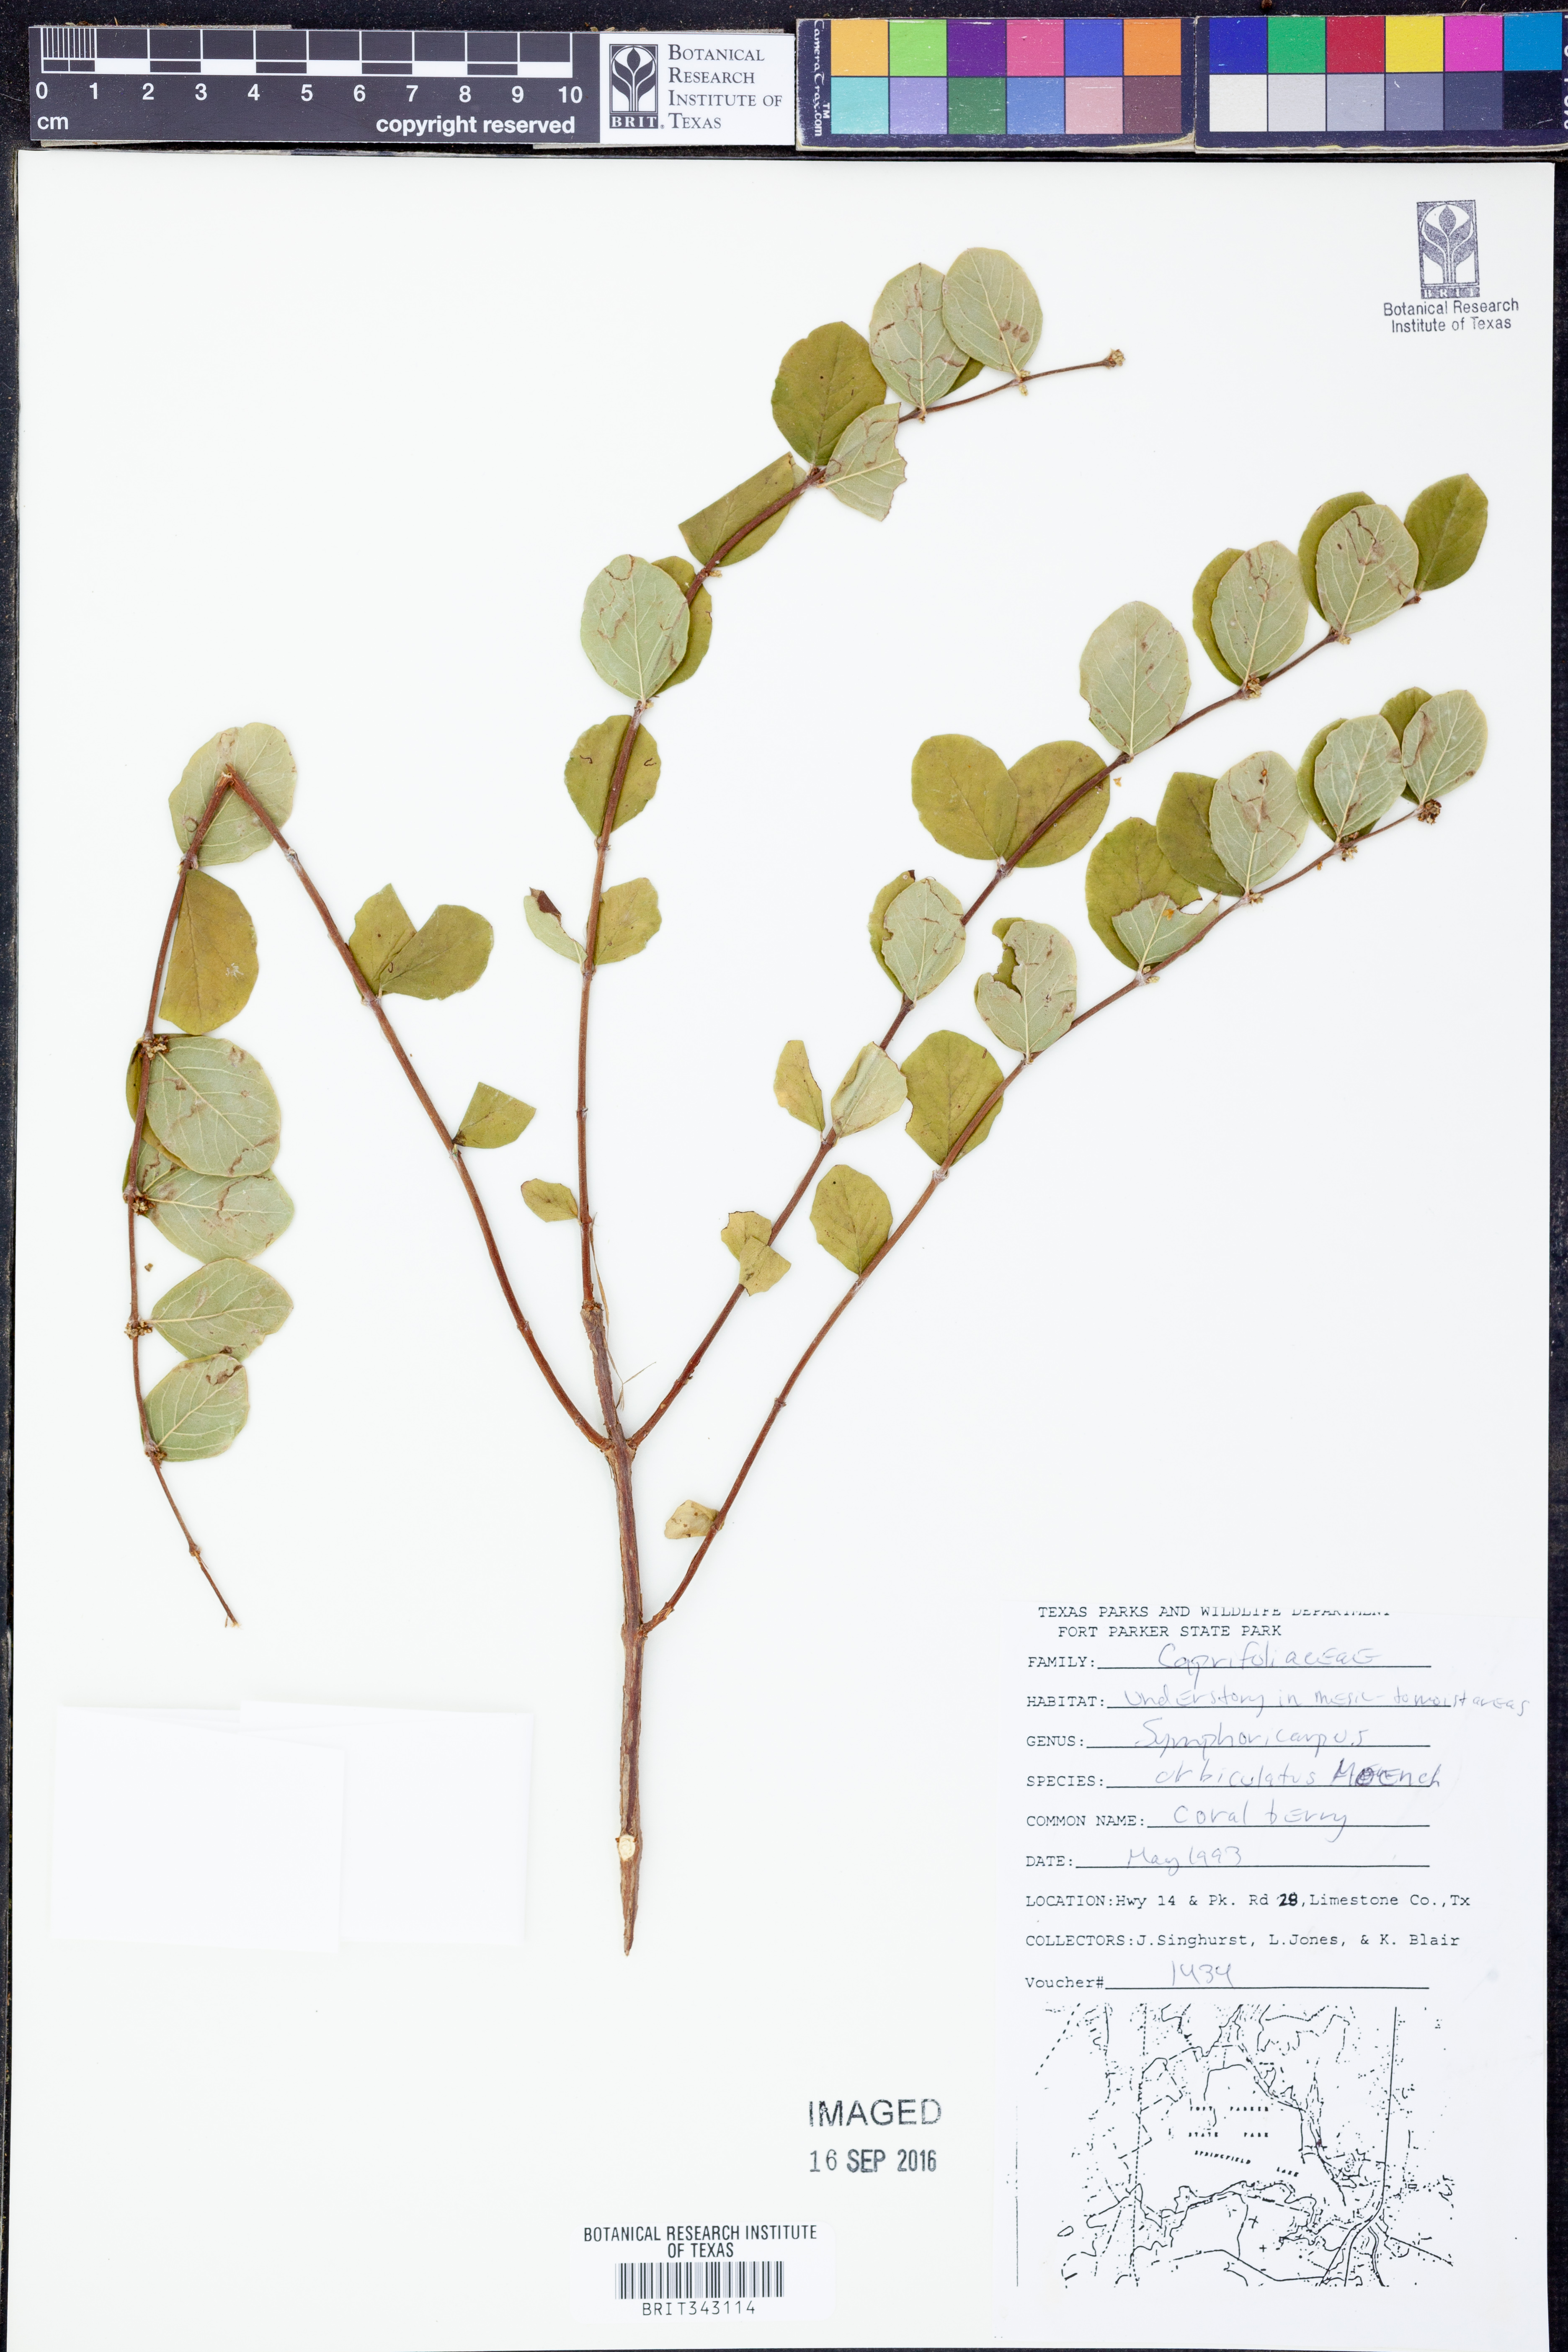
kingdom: Plantae
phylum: Tracheophyta
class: Magnoliopsida
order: Dipsacales
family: Caprifoliaceae
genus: Symphoricarpos
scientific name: Symphoricarpos orbiculatus
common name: Coralberry
